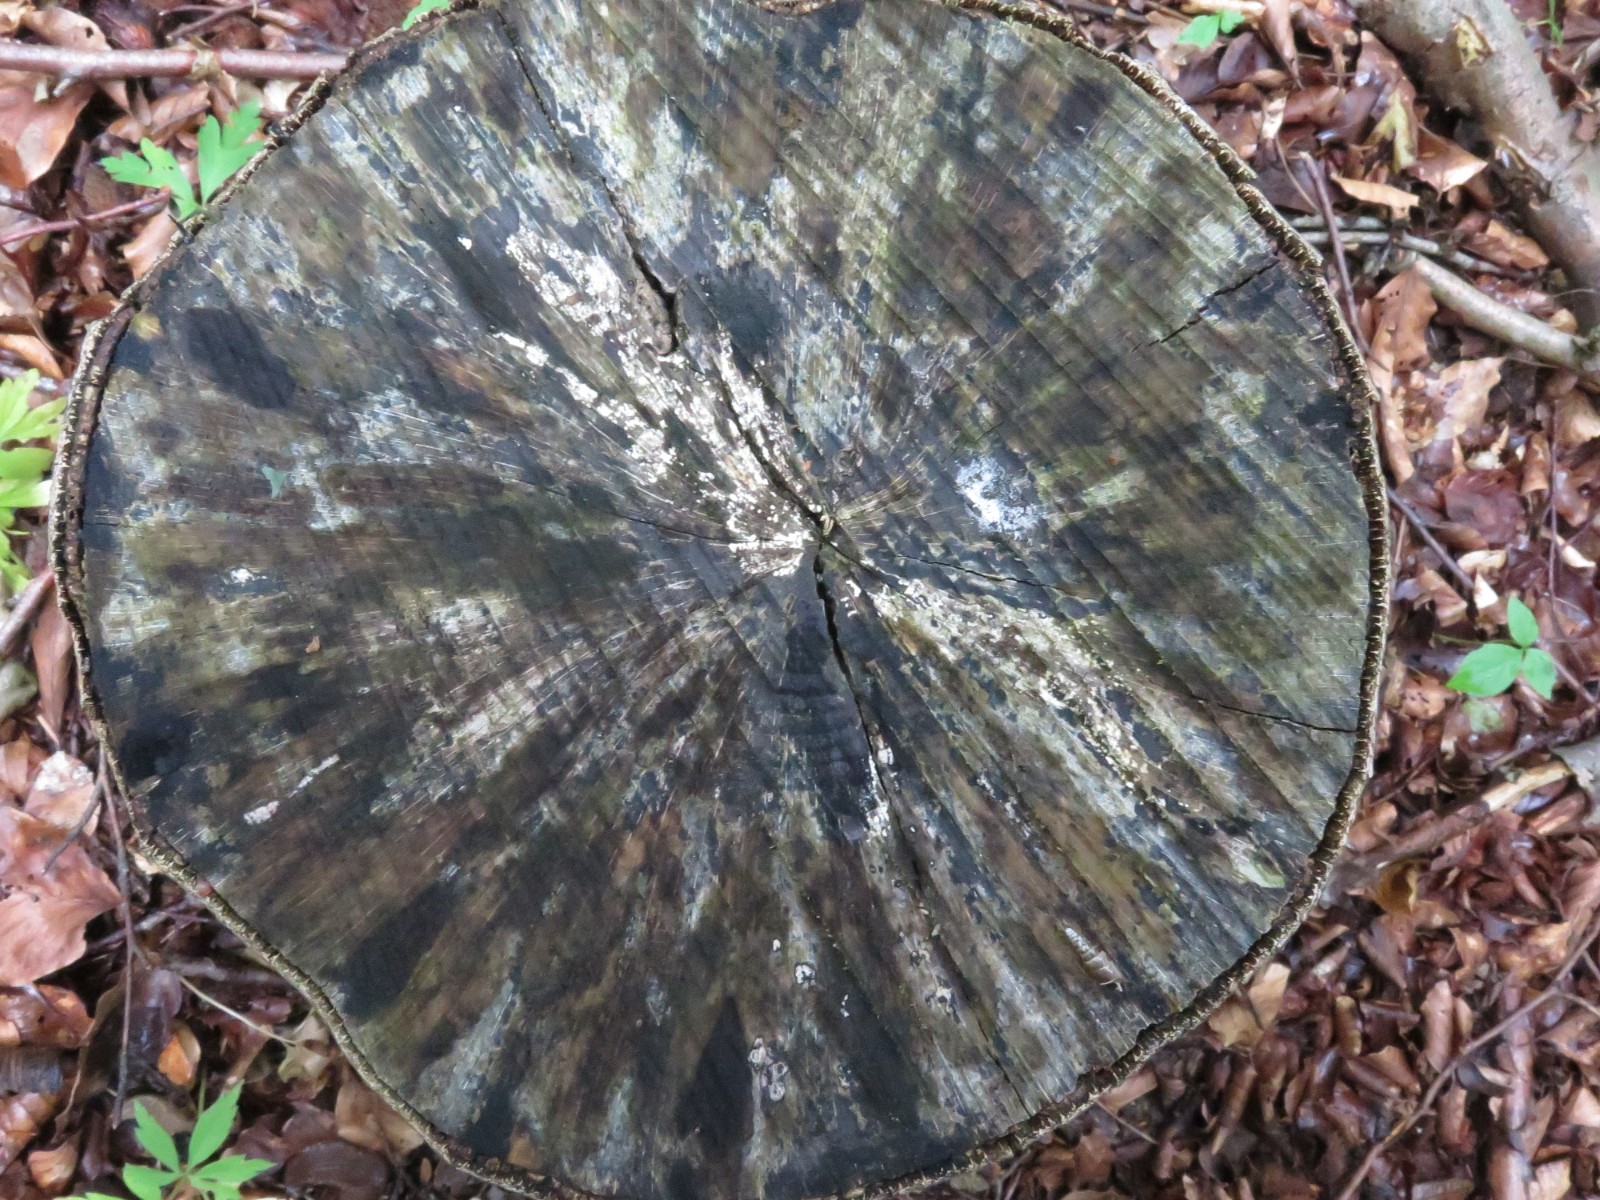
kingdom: Fungi
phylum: Ascomycota
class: Leotiomycetes
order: Helotiales
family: Helotiaceae
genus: Bispora
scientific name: Bispora pallescens
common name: måtte-snitskive
